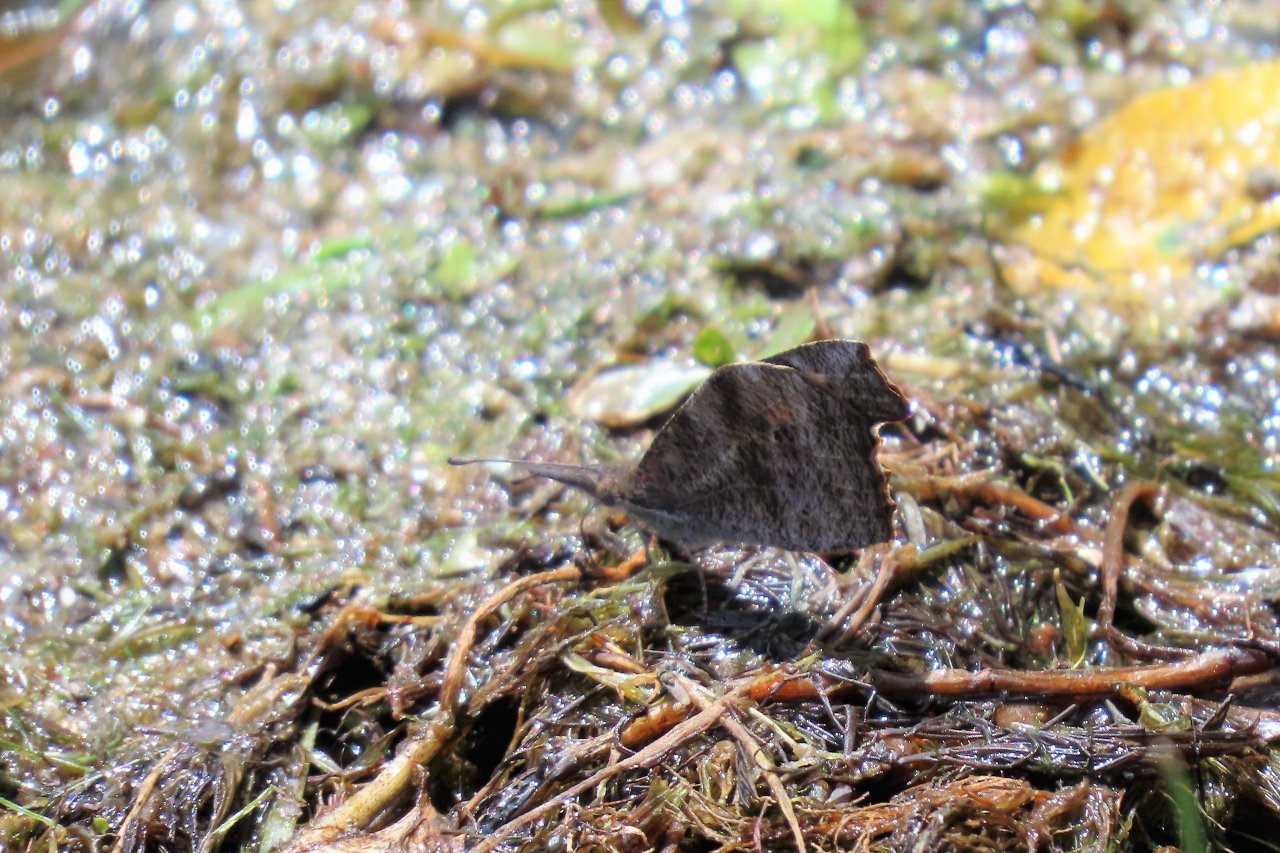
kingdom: Animalia
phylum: Arthropoda
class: Insecta
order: Lepidoptera
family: Nymphalidae
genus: Libytheana
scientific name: Libytheana carinenta
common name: American Snout
